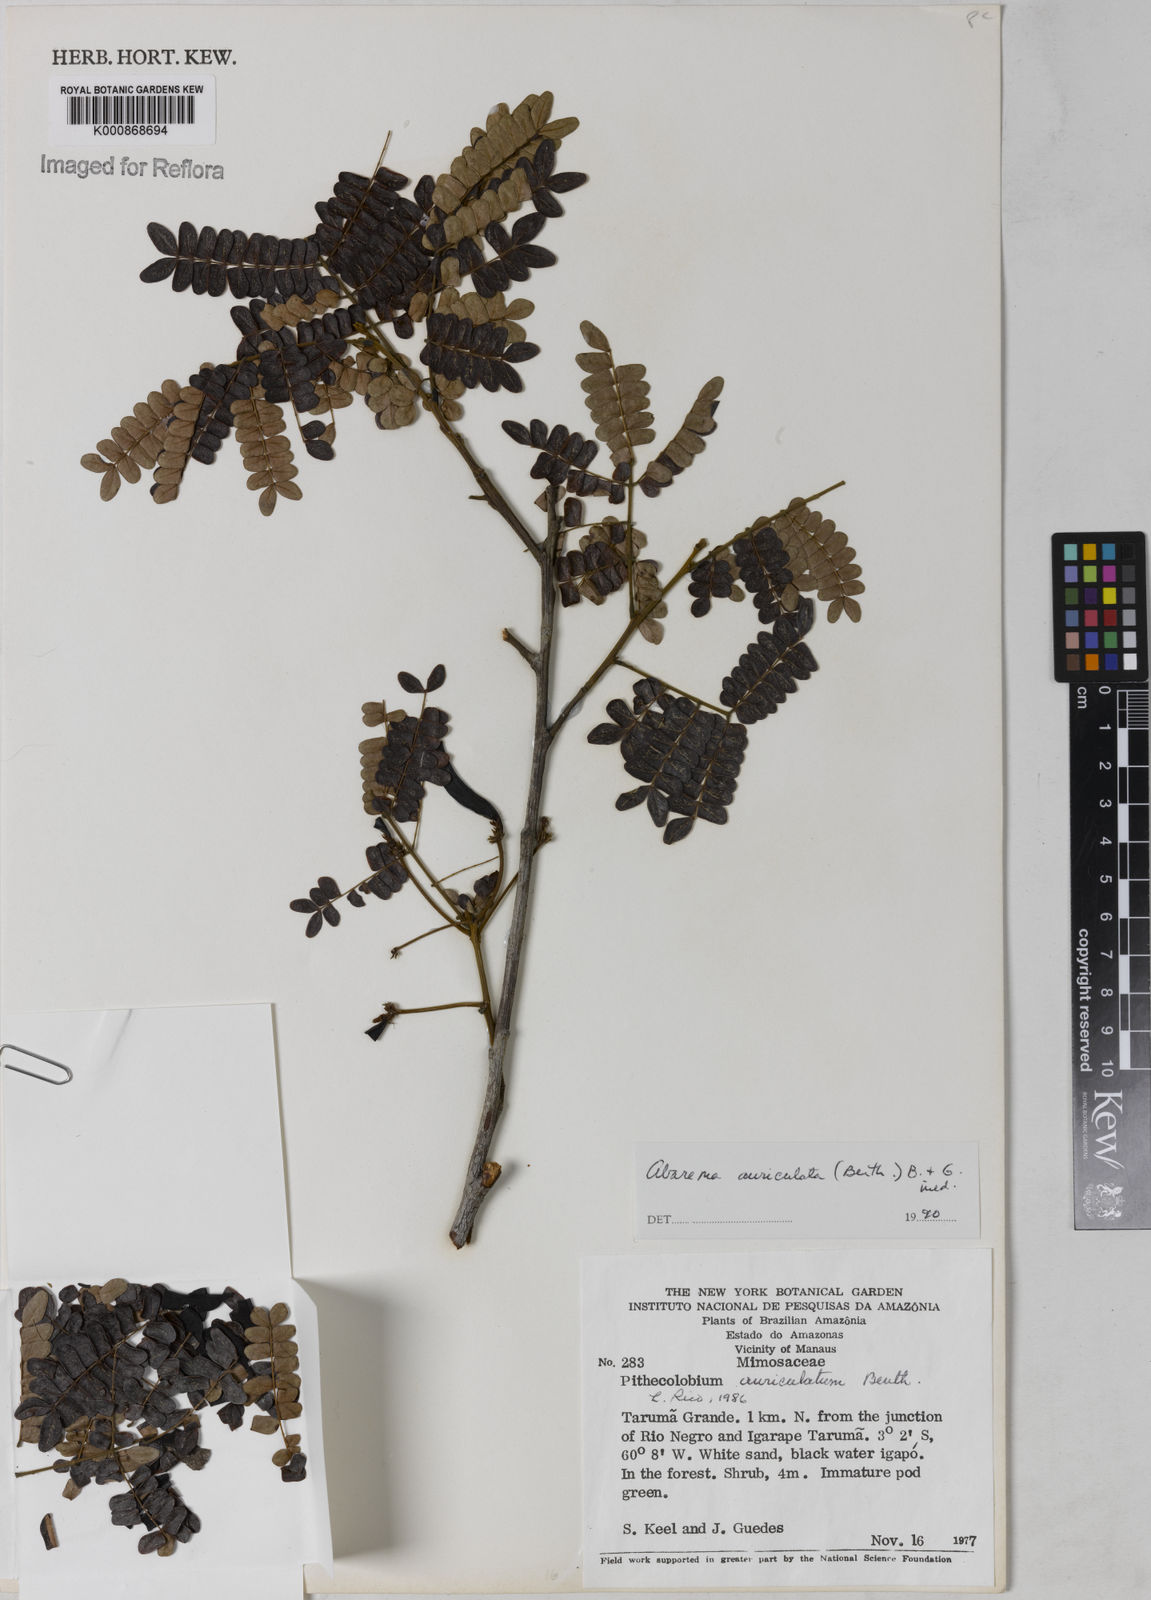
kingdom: Plantae
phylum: Tracheophyta
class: Magnoliopsida
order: Fabales
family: Fabaceae
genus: Jupunba
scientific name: Jupunba auriculata
